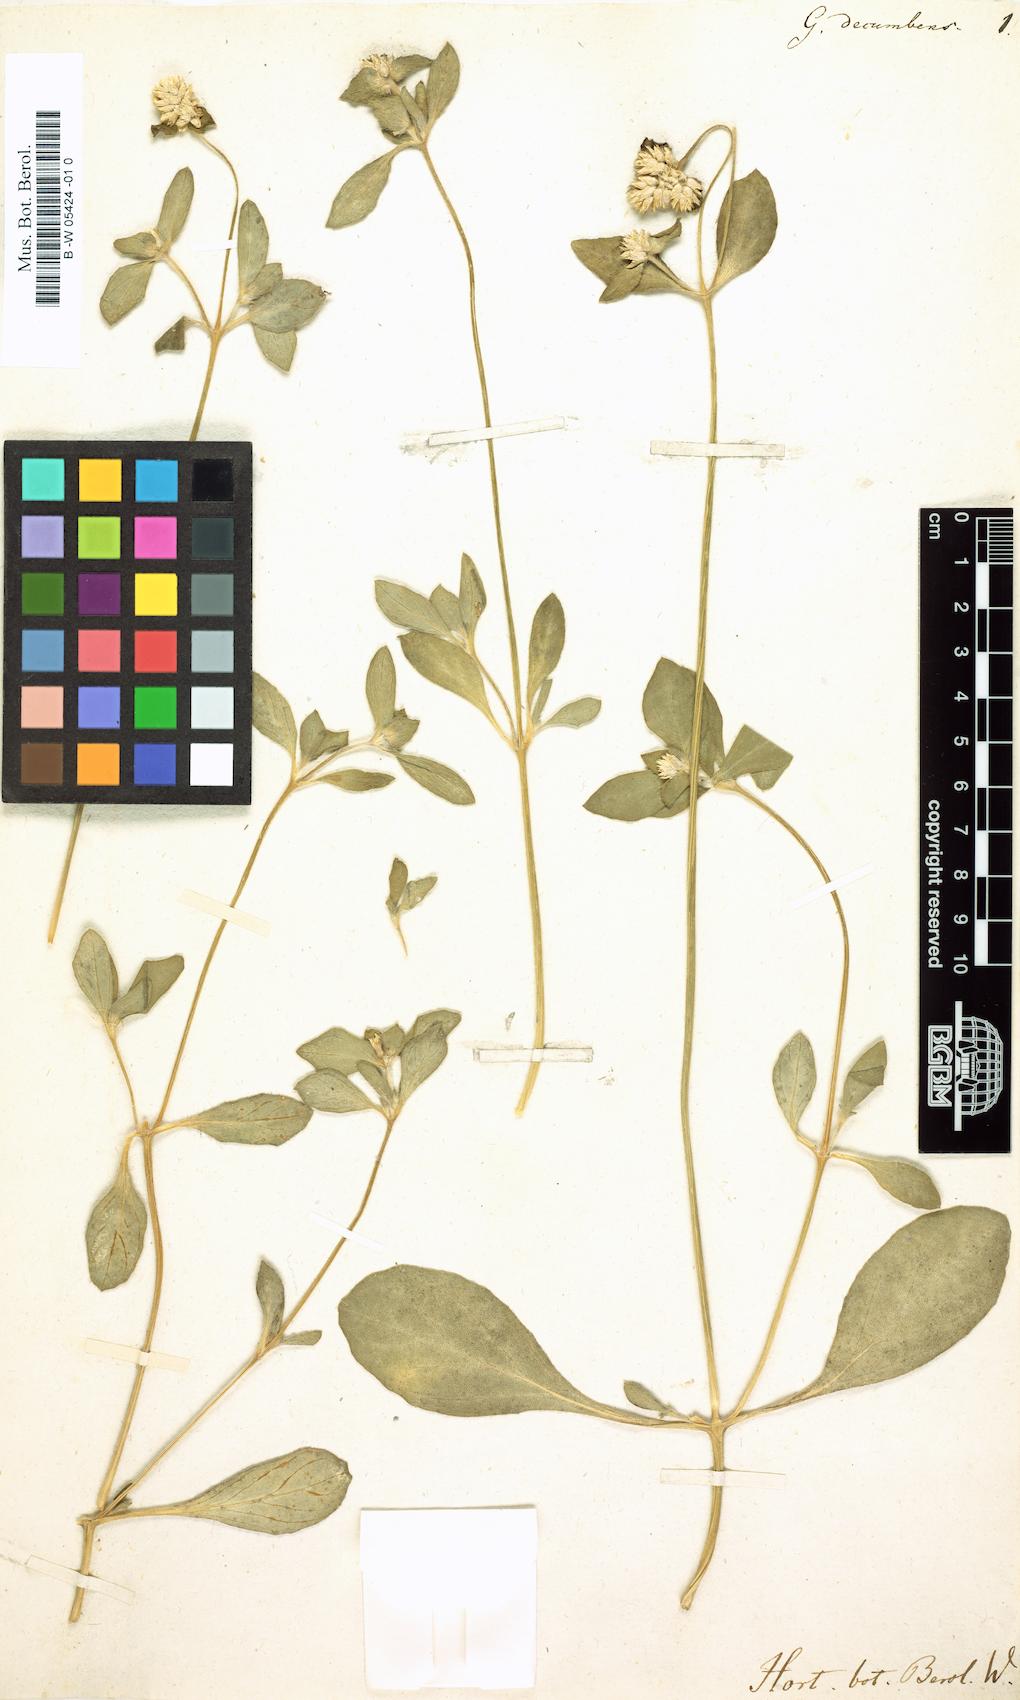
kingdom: Plantae
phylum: Tracheophyta
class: Magnoliopsida
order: Caryophyllales
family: Amaranthaceae
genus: Gomphrena
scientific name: Gomphrena
